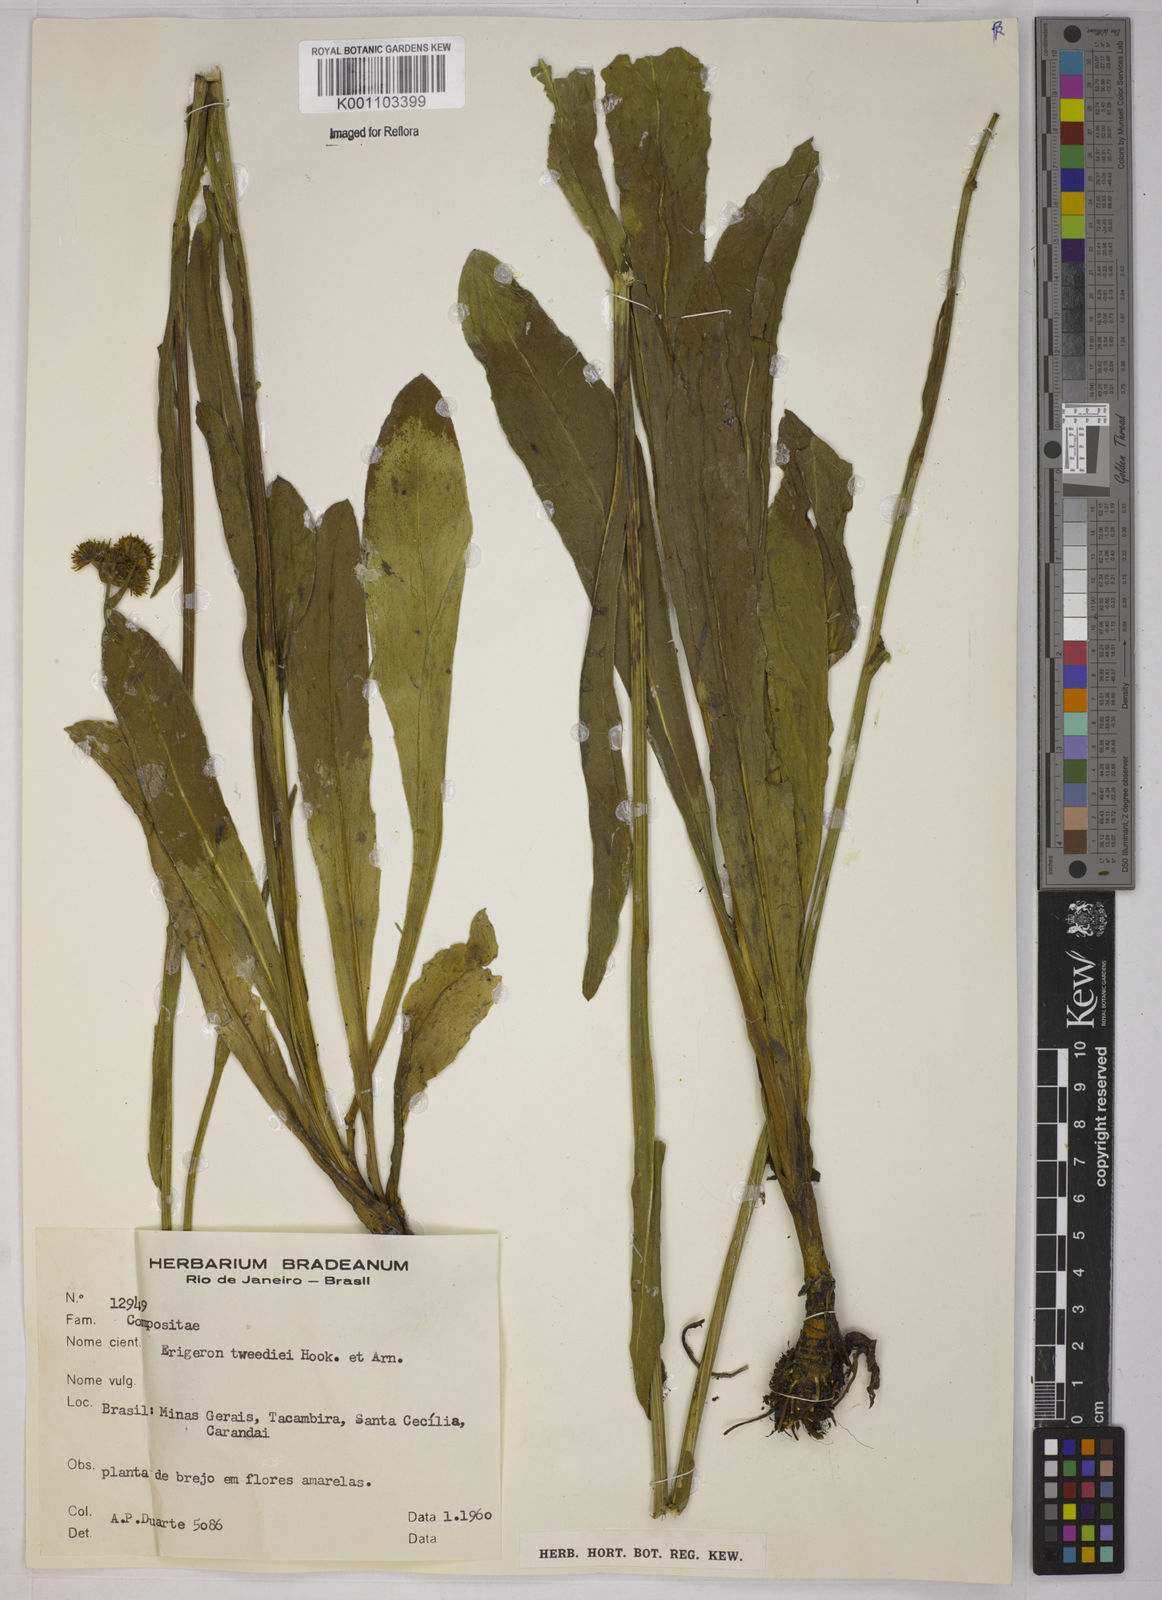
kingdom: Plantae
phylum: Tracheophyta
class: Magnoliopsida
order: Asterales
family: Asteraceae
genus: Leptostelma
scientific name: Leptostelma tweediei
